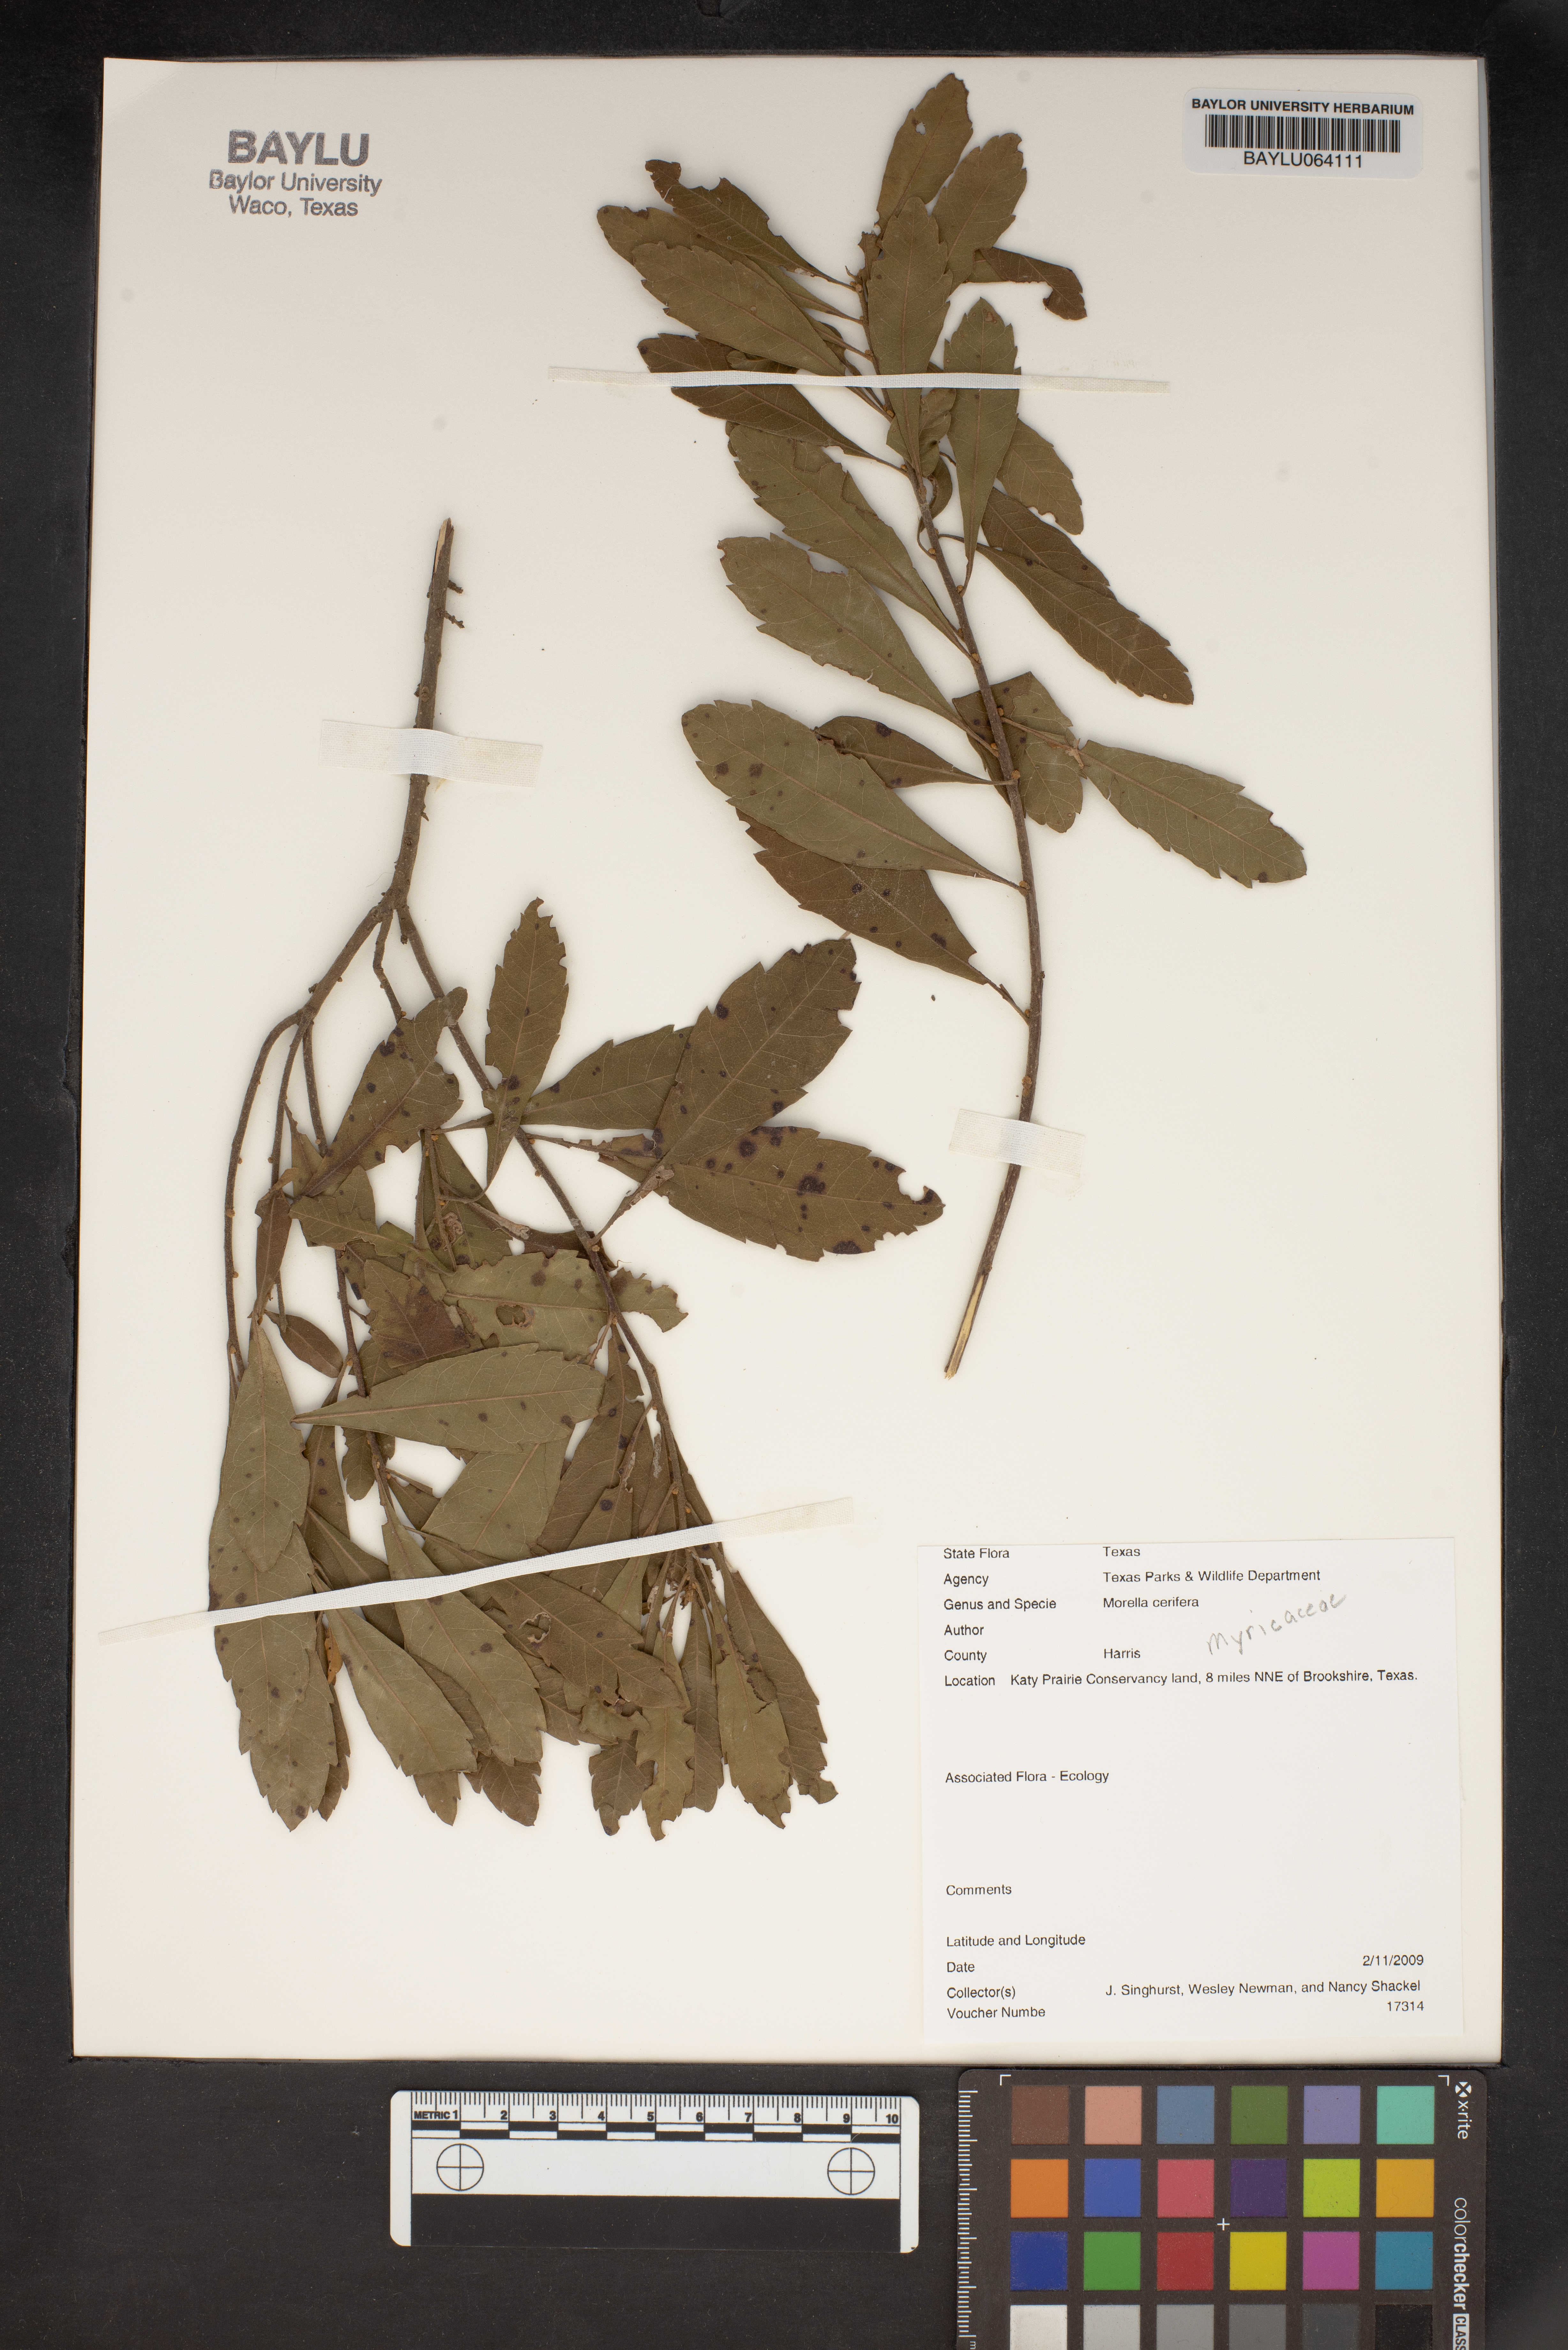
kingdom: Plantae
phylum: Tracheophyta
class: Magnoliopsida
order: Fagales
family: Myricaceae
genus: Morella
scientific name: Morella cerifera
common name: Wax myrtle
